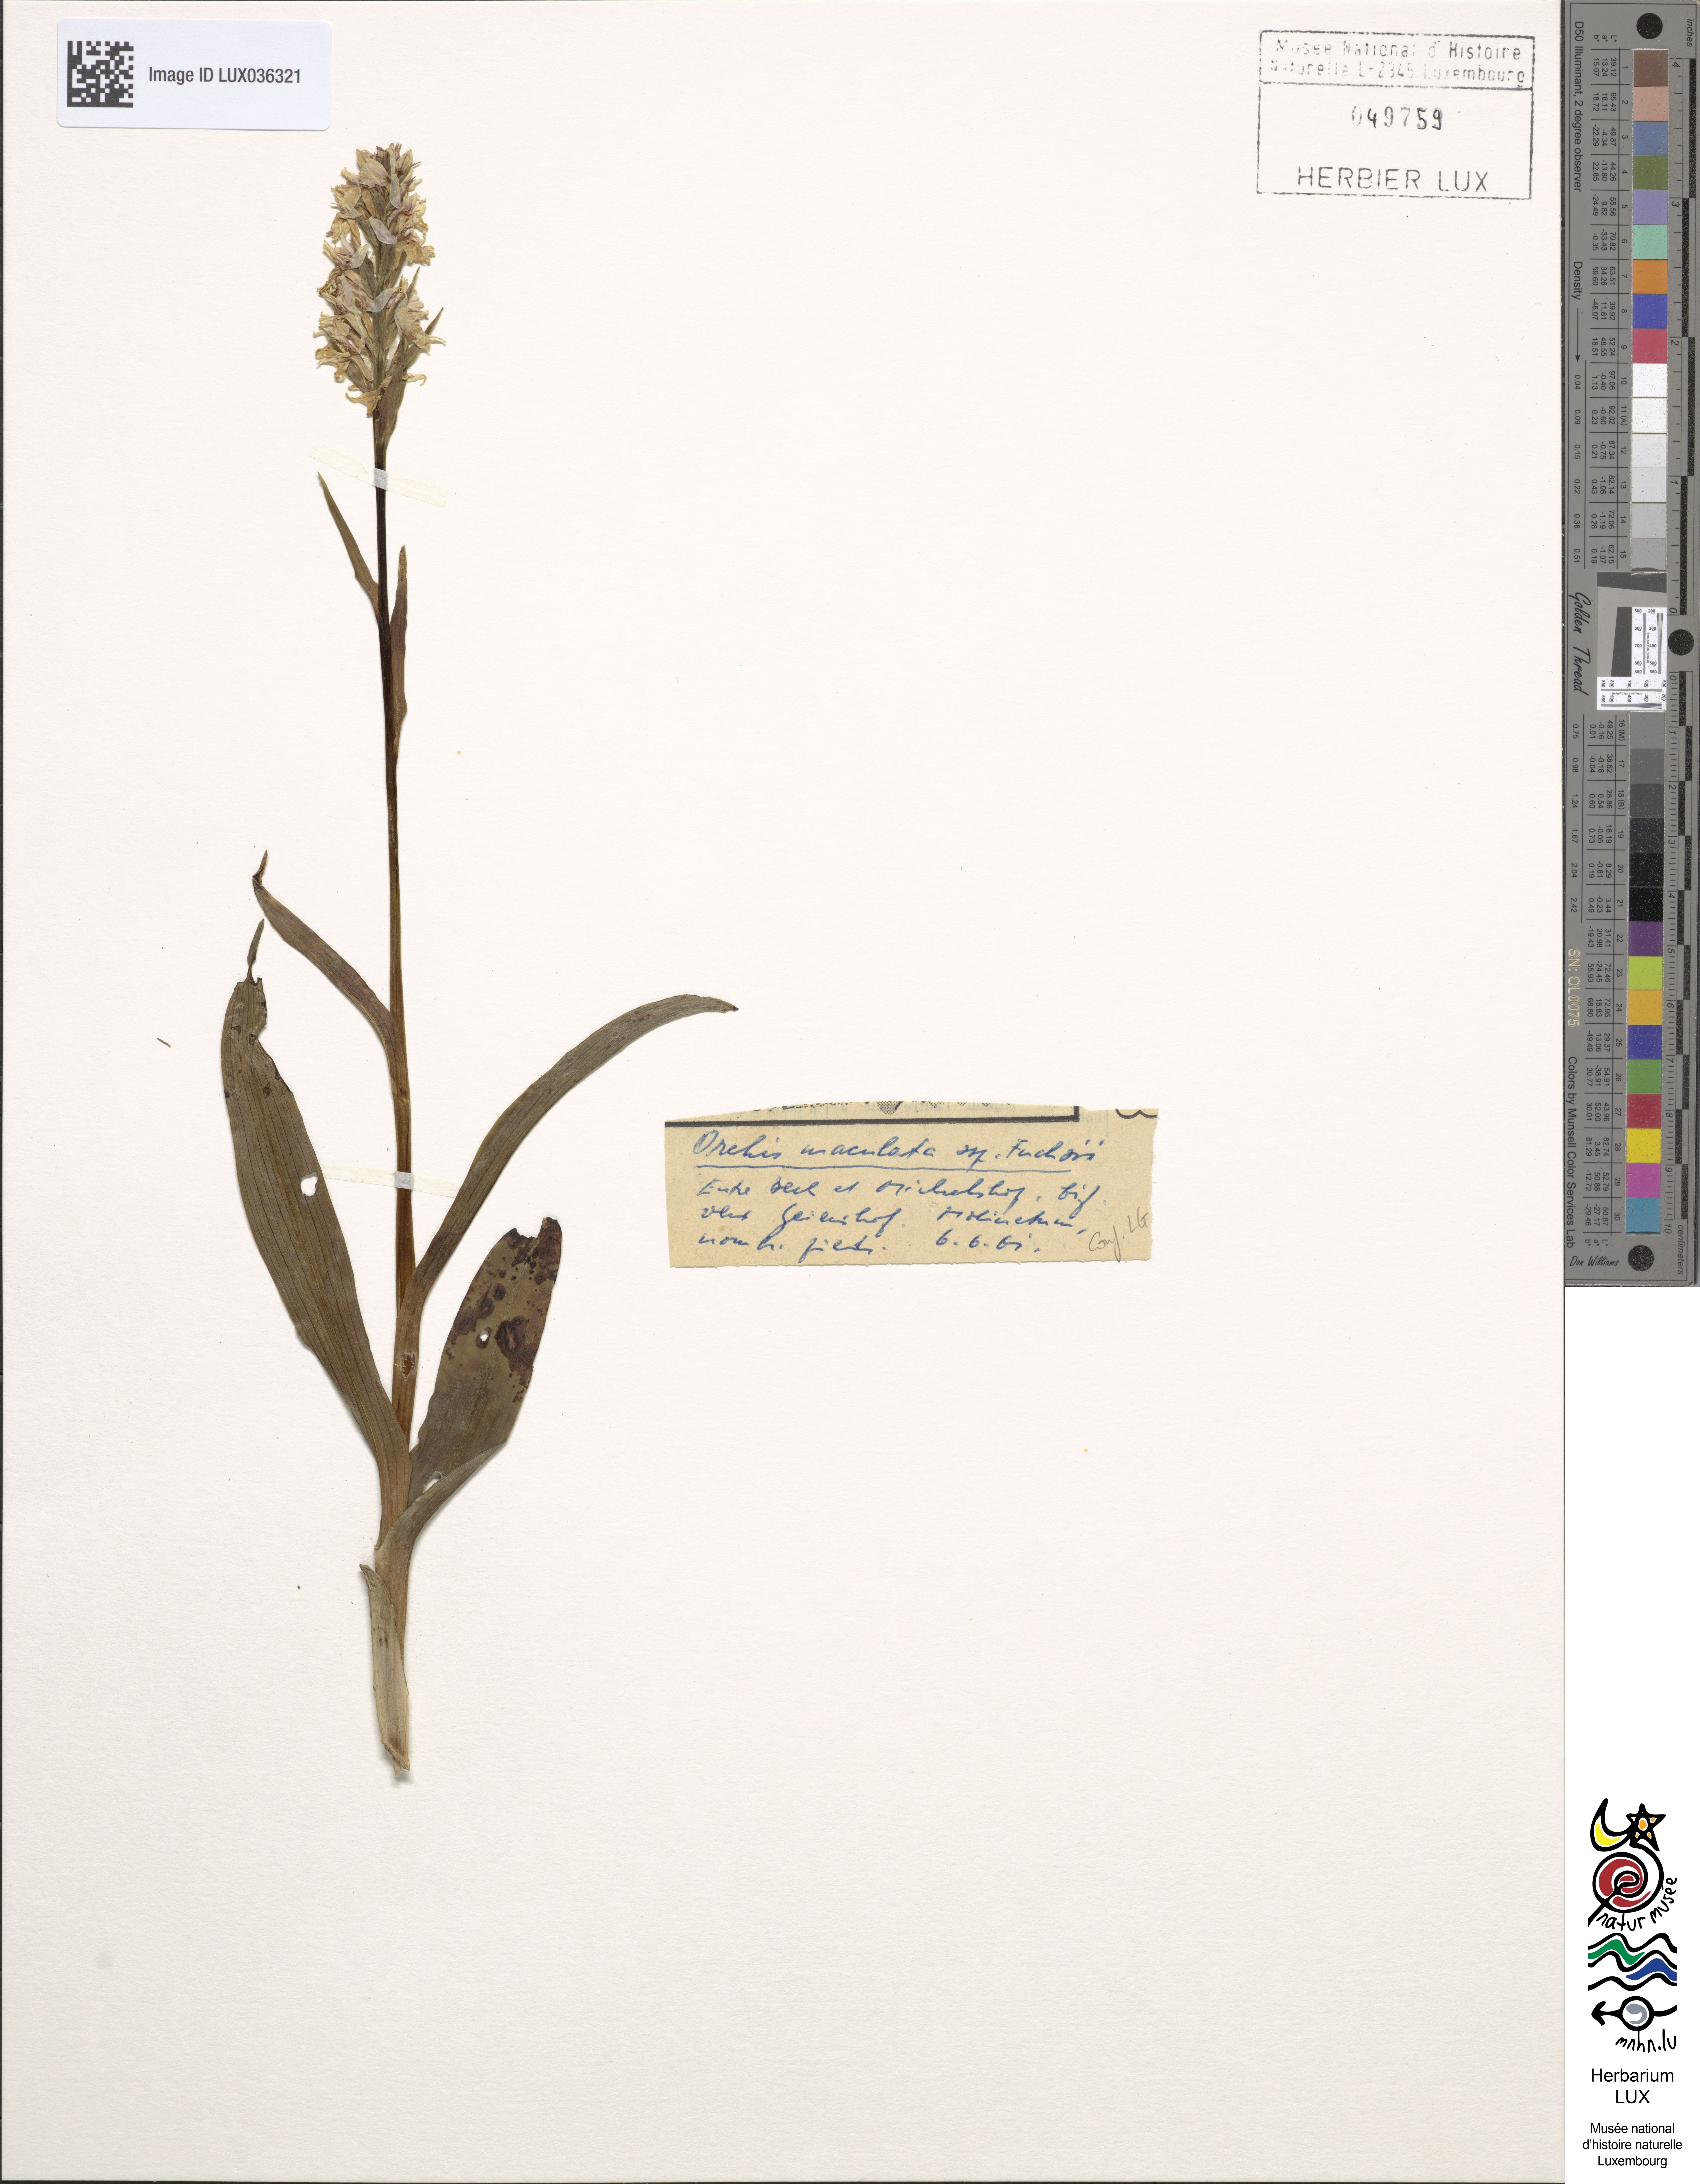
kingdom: Plantae
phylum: Tracheophyta
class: Liliopsida
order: Asparagales
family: Orchidaceae
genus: Dactylorhiza
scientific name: Dactylorhiza maculata
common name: Heath spotted-orchid
